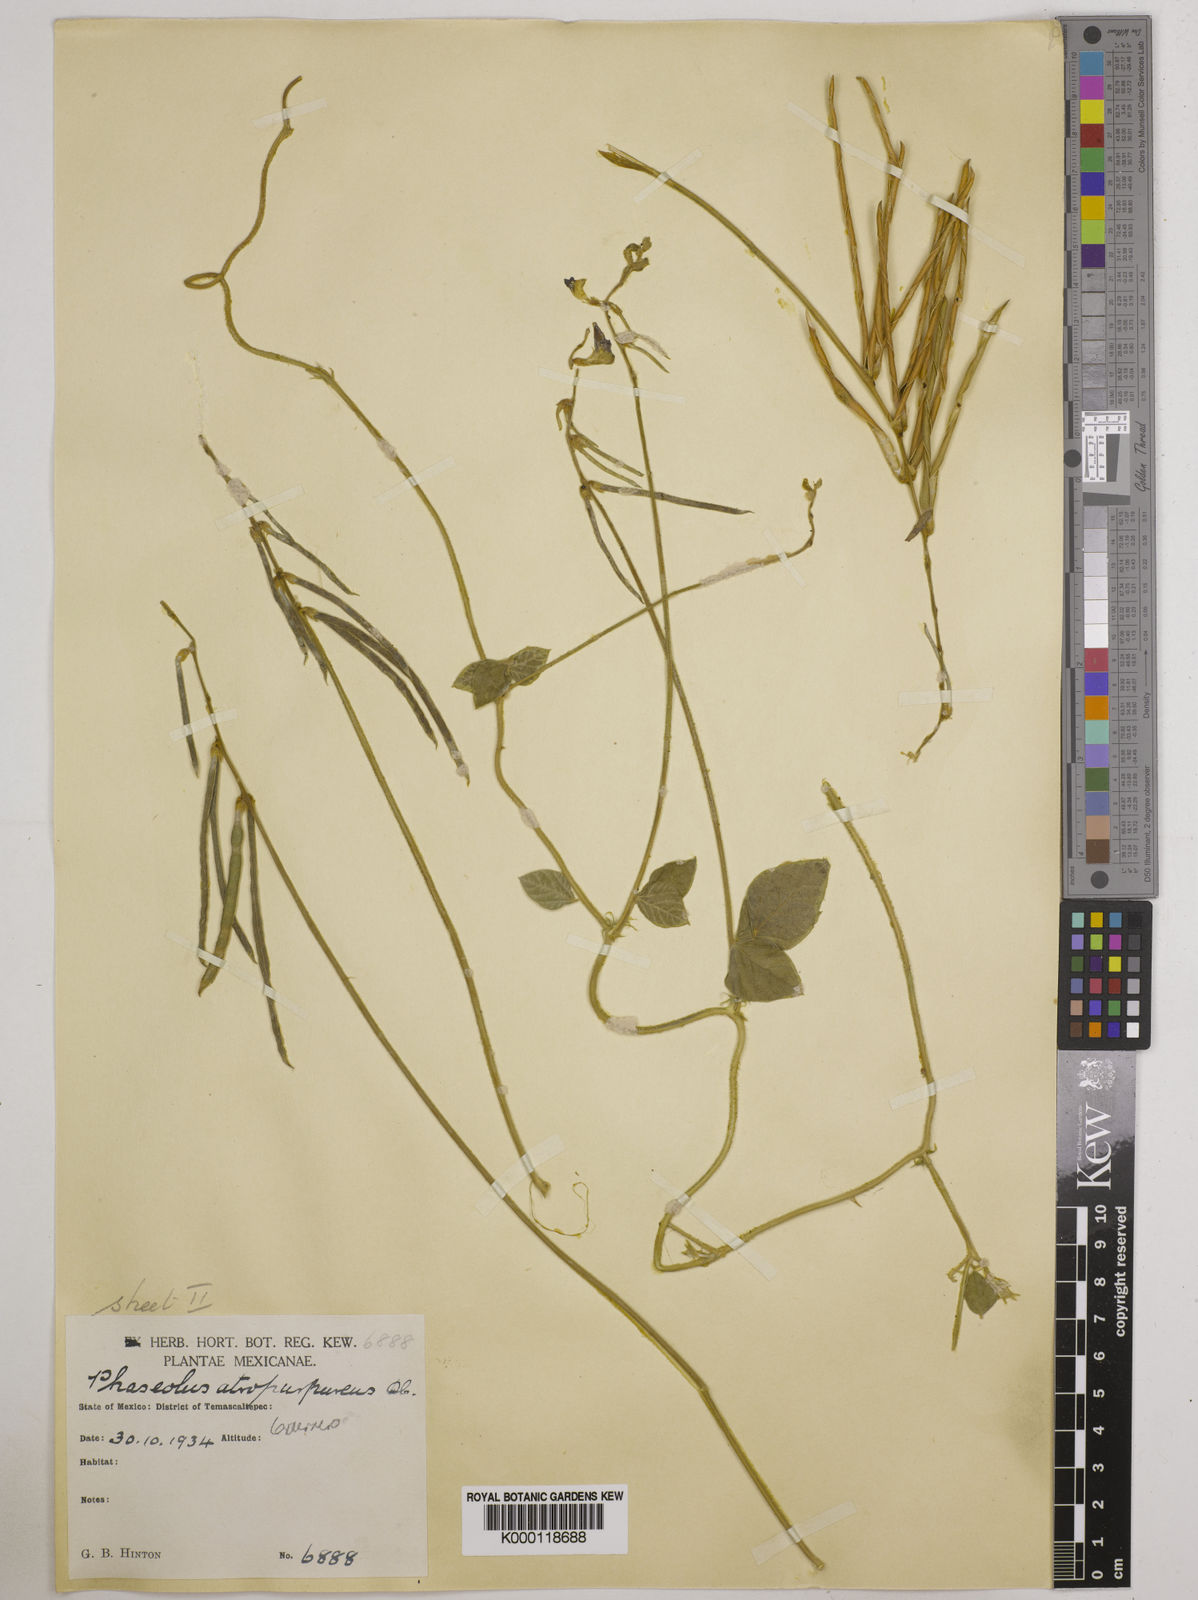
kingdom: Plantae
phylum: Tracheophyta
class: Magnoliopsida
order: Fabales
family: Fabaceae
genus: Macroptilium
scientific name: Macroptilium atropurpureum
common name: Purple bushbean
